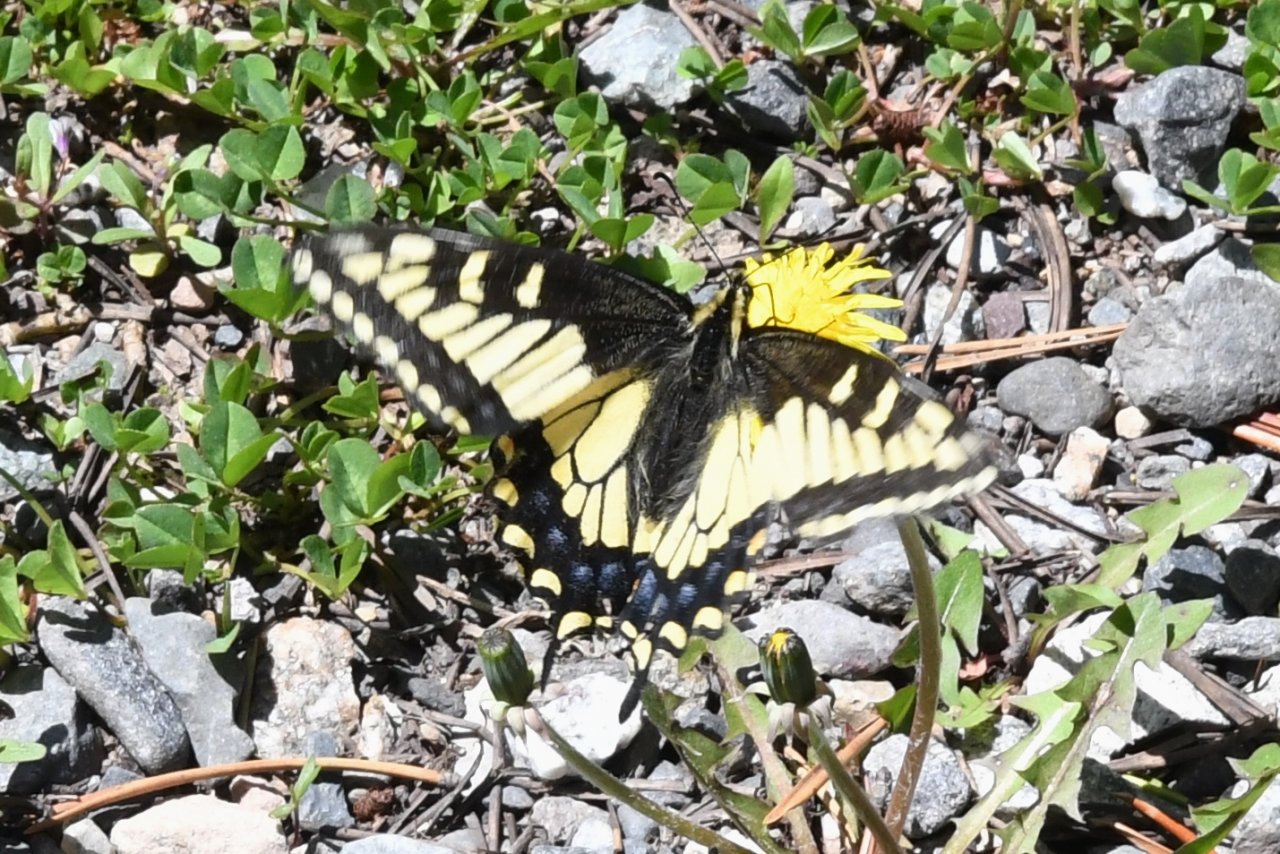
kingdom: Animalia
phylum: Arthropoda
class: Insecta
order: Lepidoptera
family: Papilionidae
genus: Papilio
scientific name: Papilio zelicaon
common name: Anise Swallowtail
